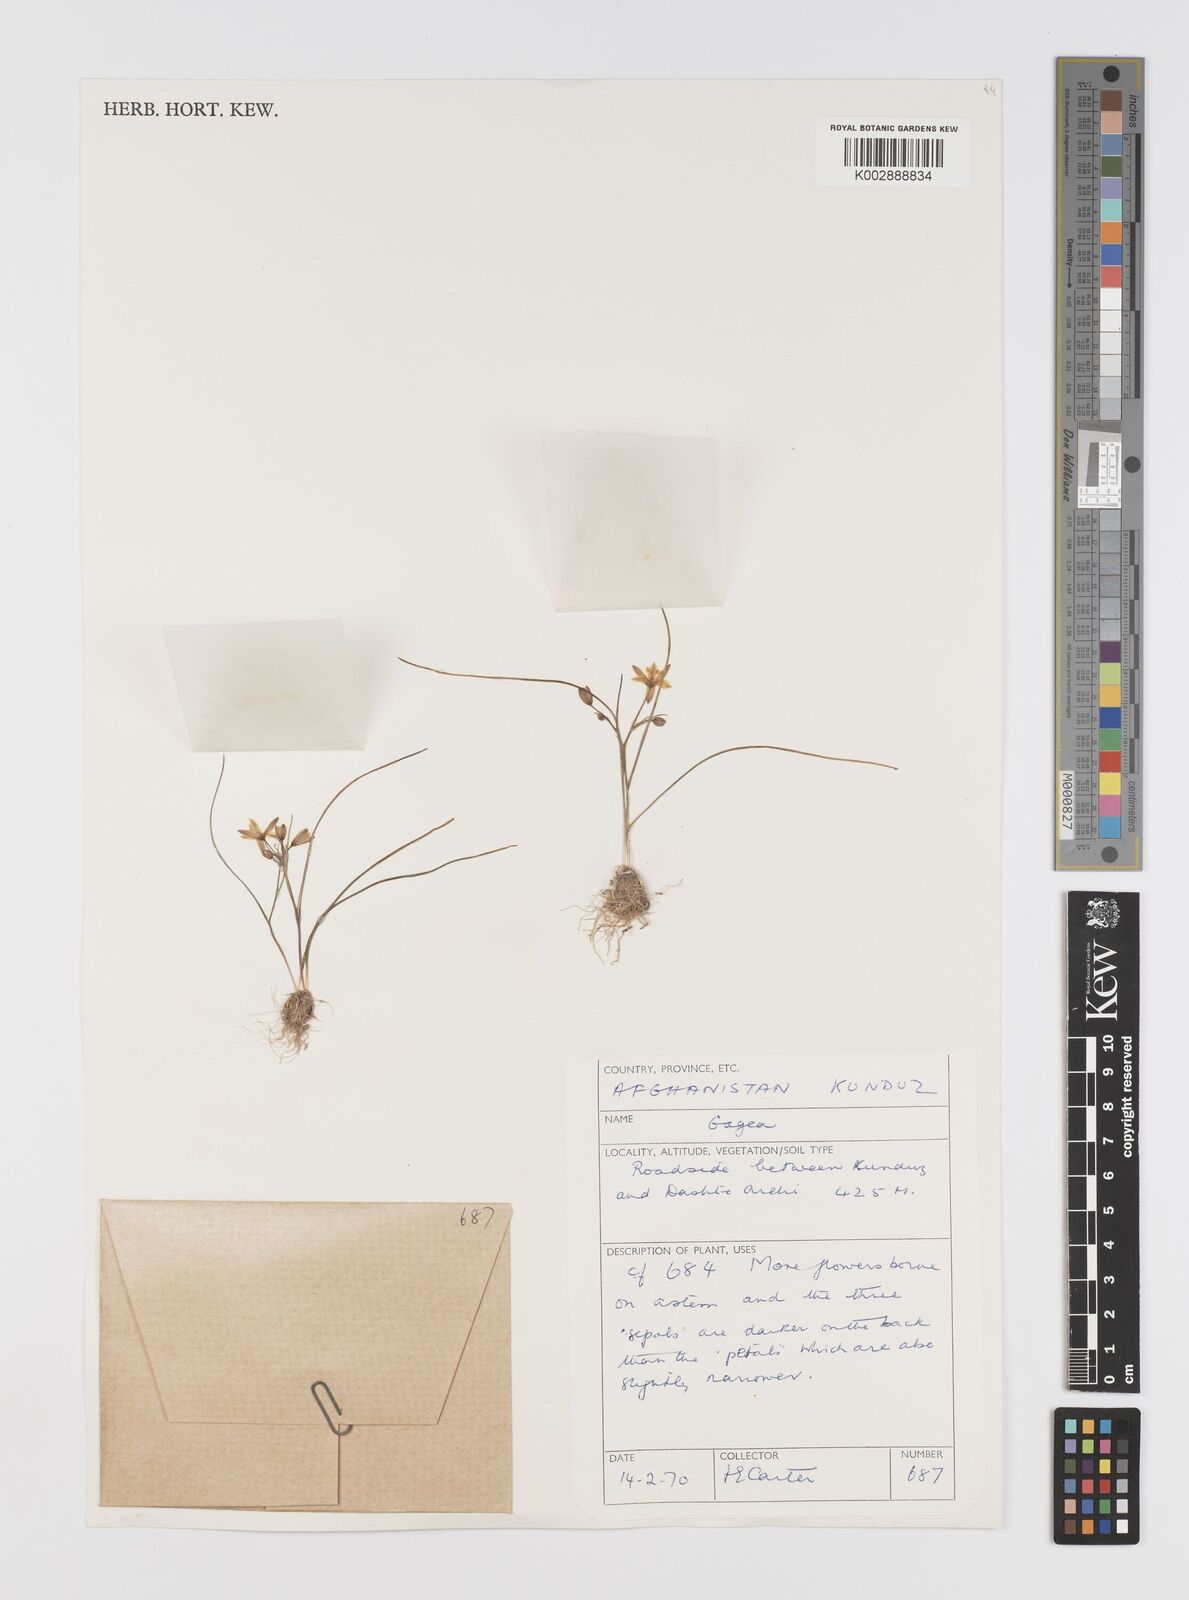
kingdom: Plantae
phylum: Tracheophyta
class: Liliopsida
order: Liliales
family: Liliaceae
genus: Gagea
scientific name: Gagea
